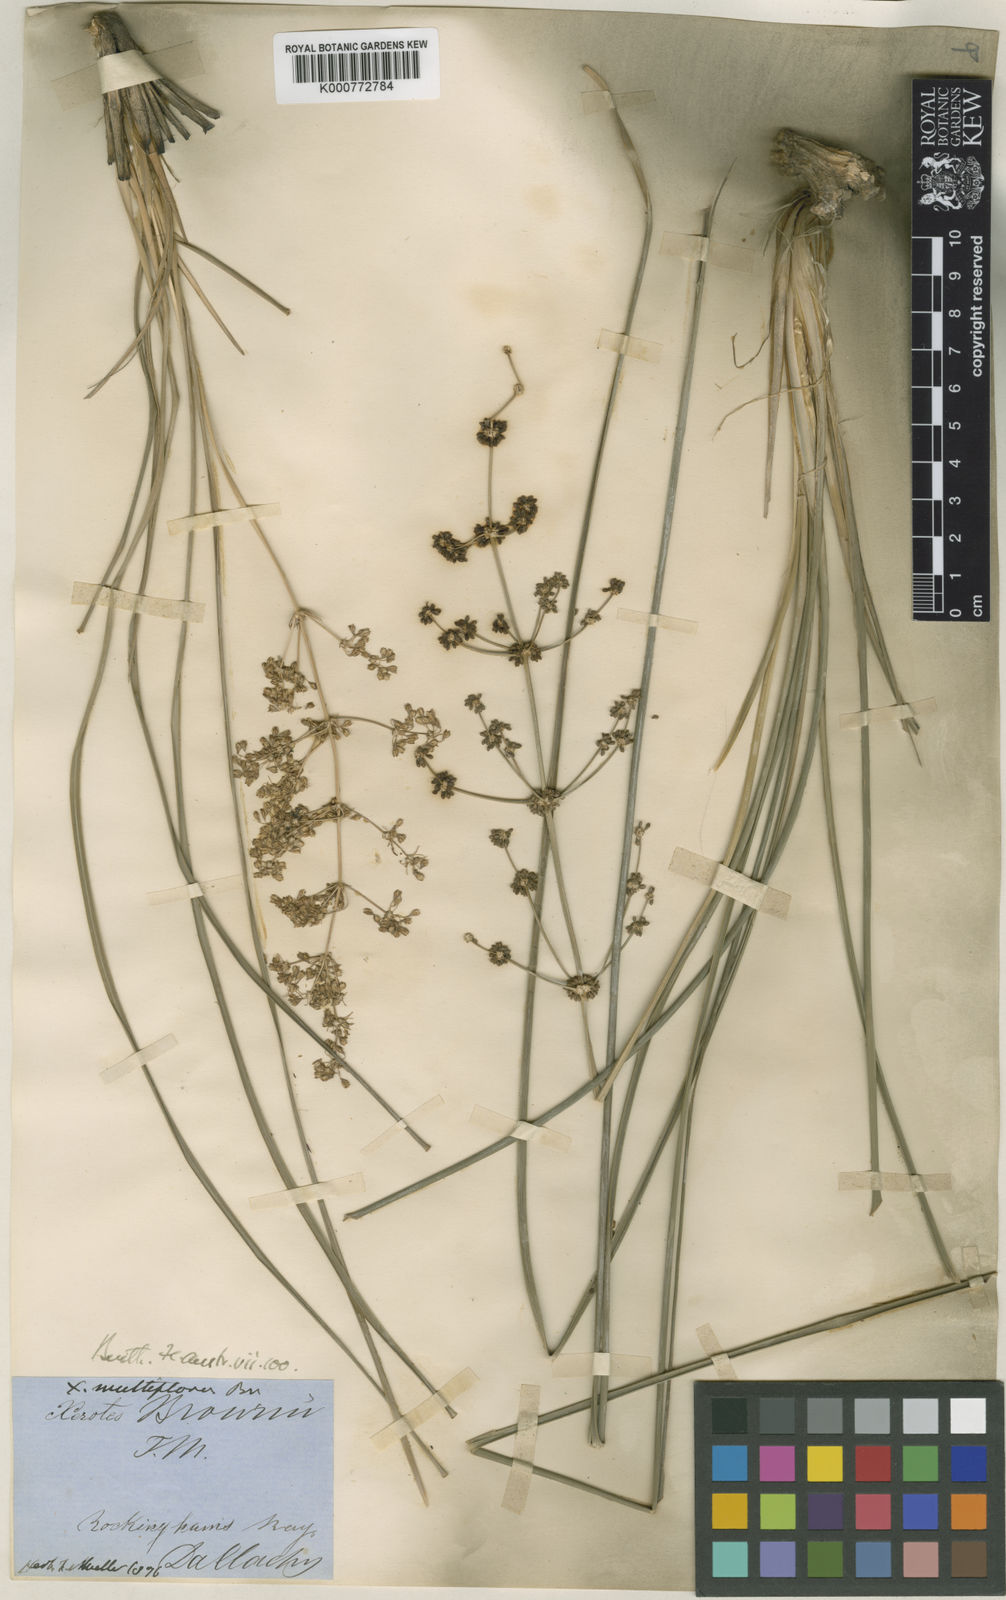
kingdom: Plantae
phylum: Tracheophyta
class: Liliopsida
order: Asparagales
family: Asparagaceae
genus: Lomandra
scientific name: Lomandra multiflora
